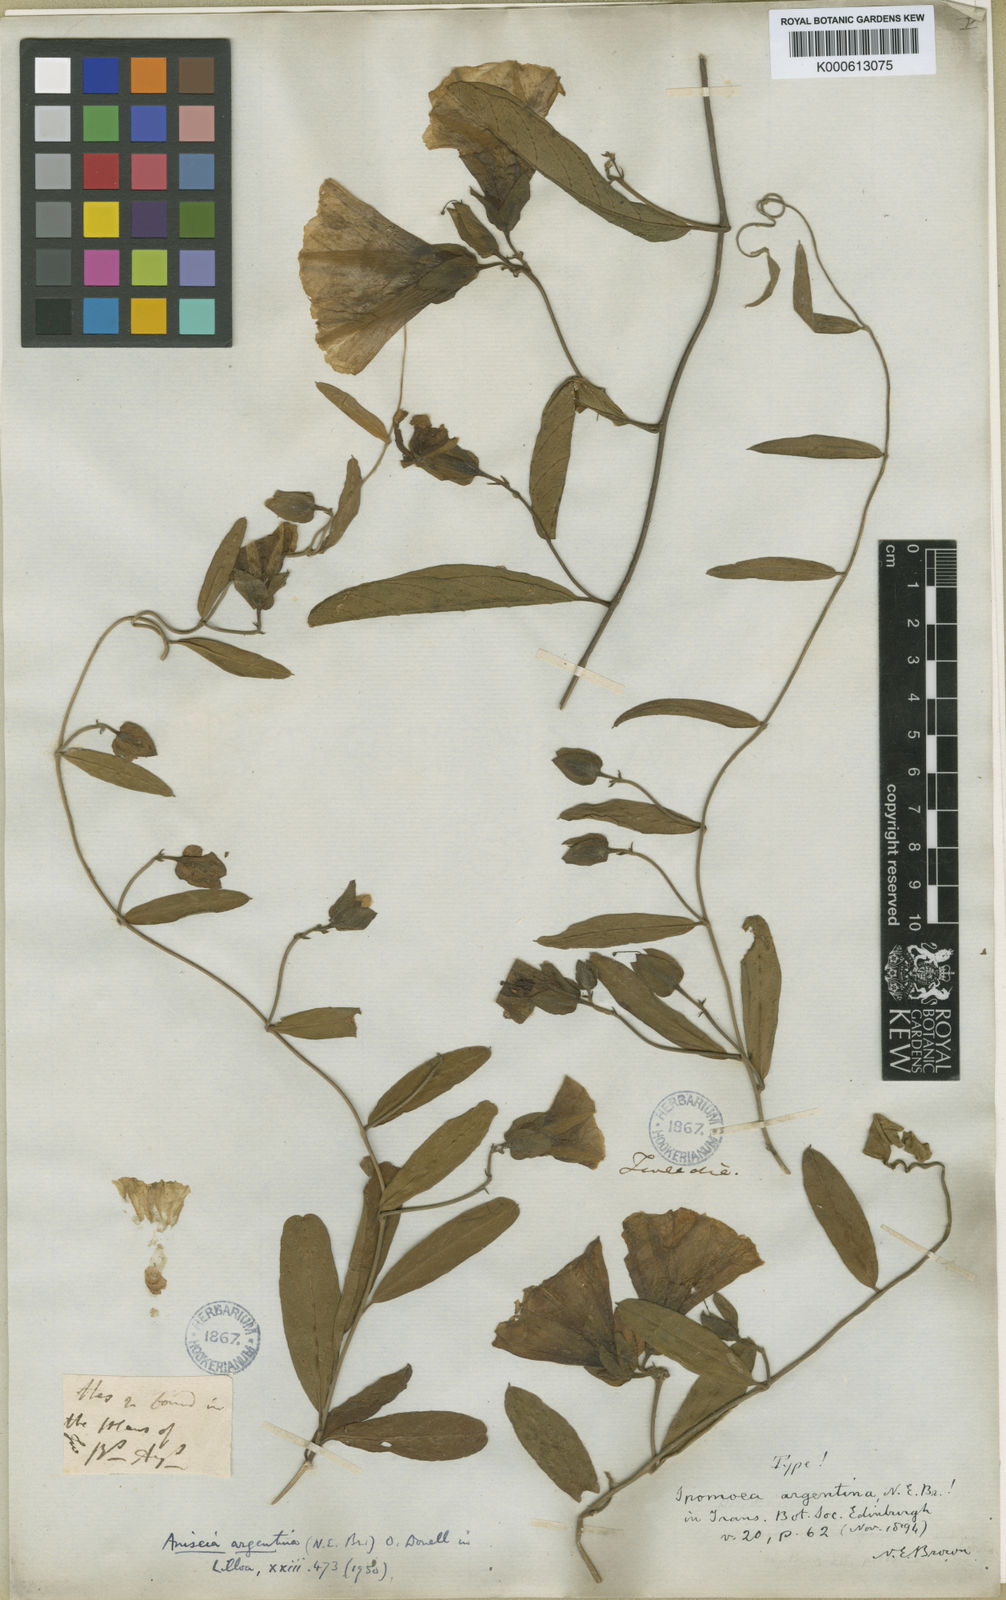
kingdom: Plantae
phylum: Tracheophyta
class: Magnoliopsida
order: Solanales
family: Convolvulaceae
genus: Aniseia
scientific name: Aniseia argentina
